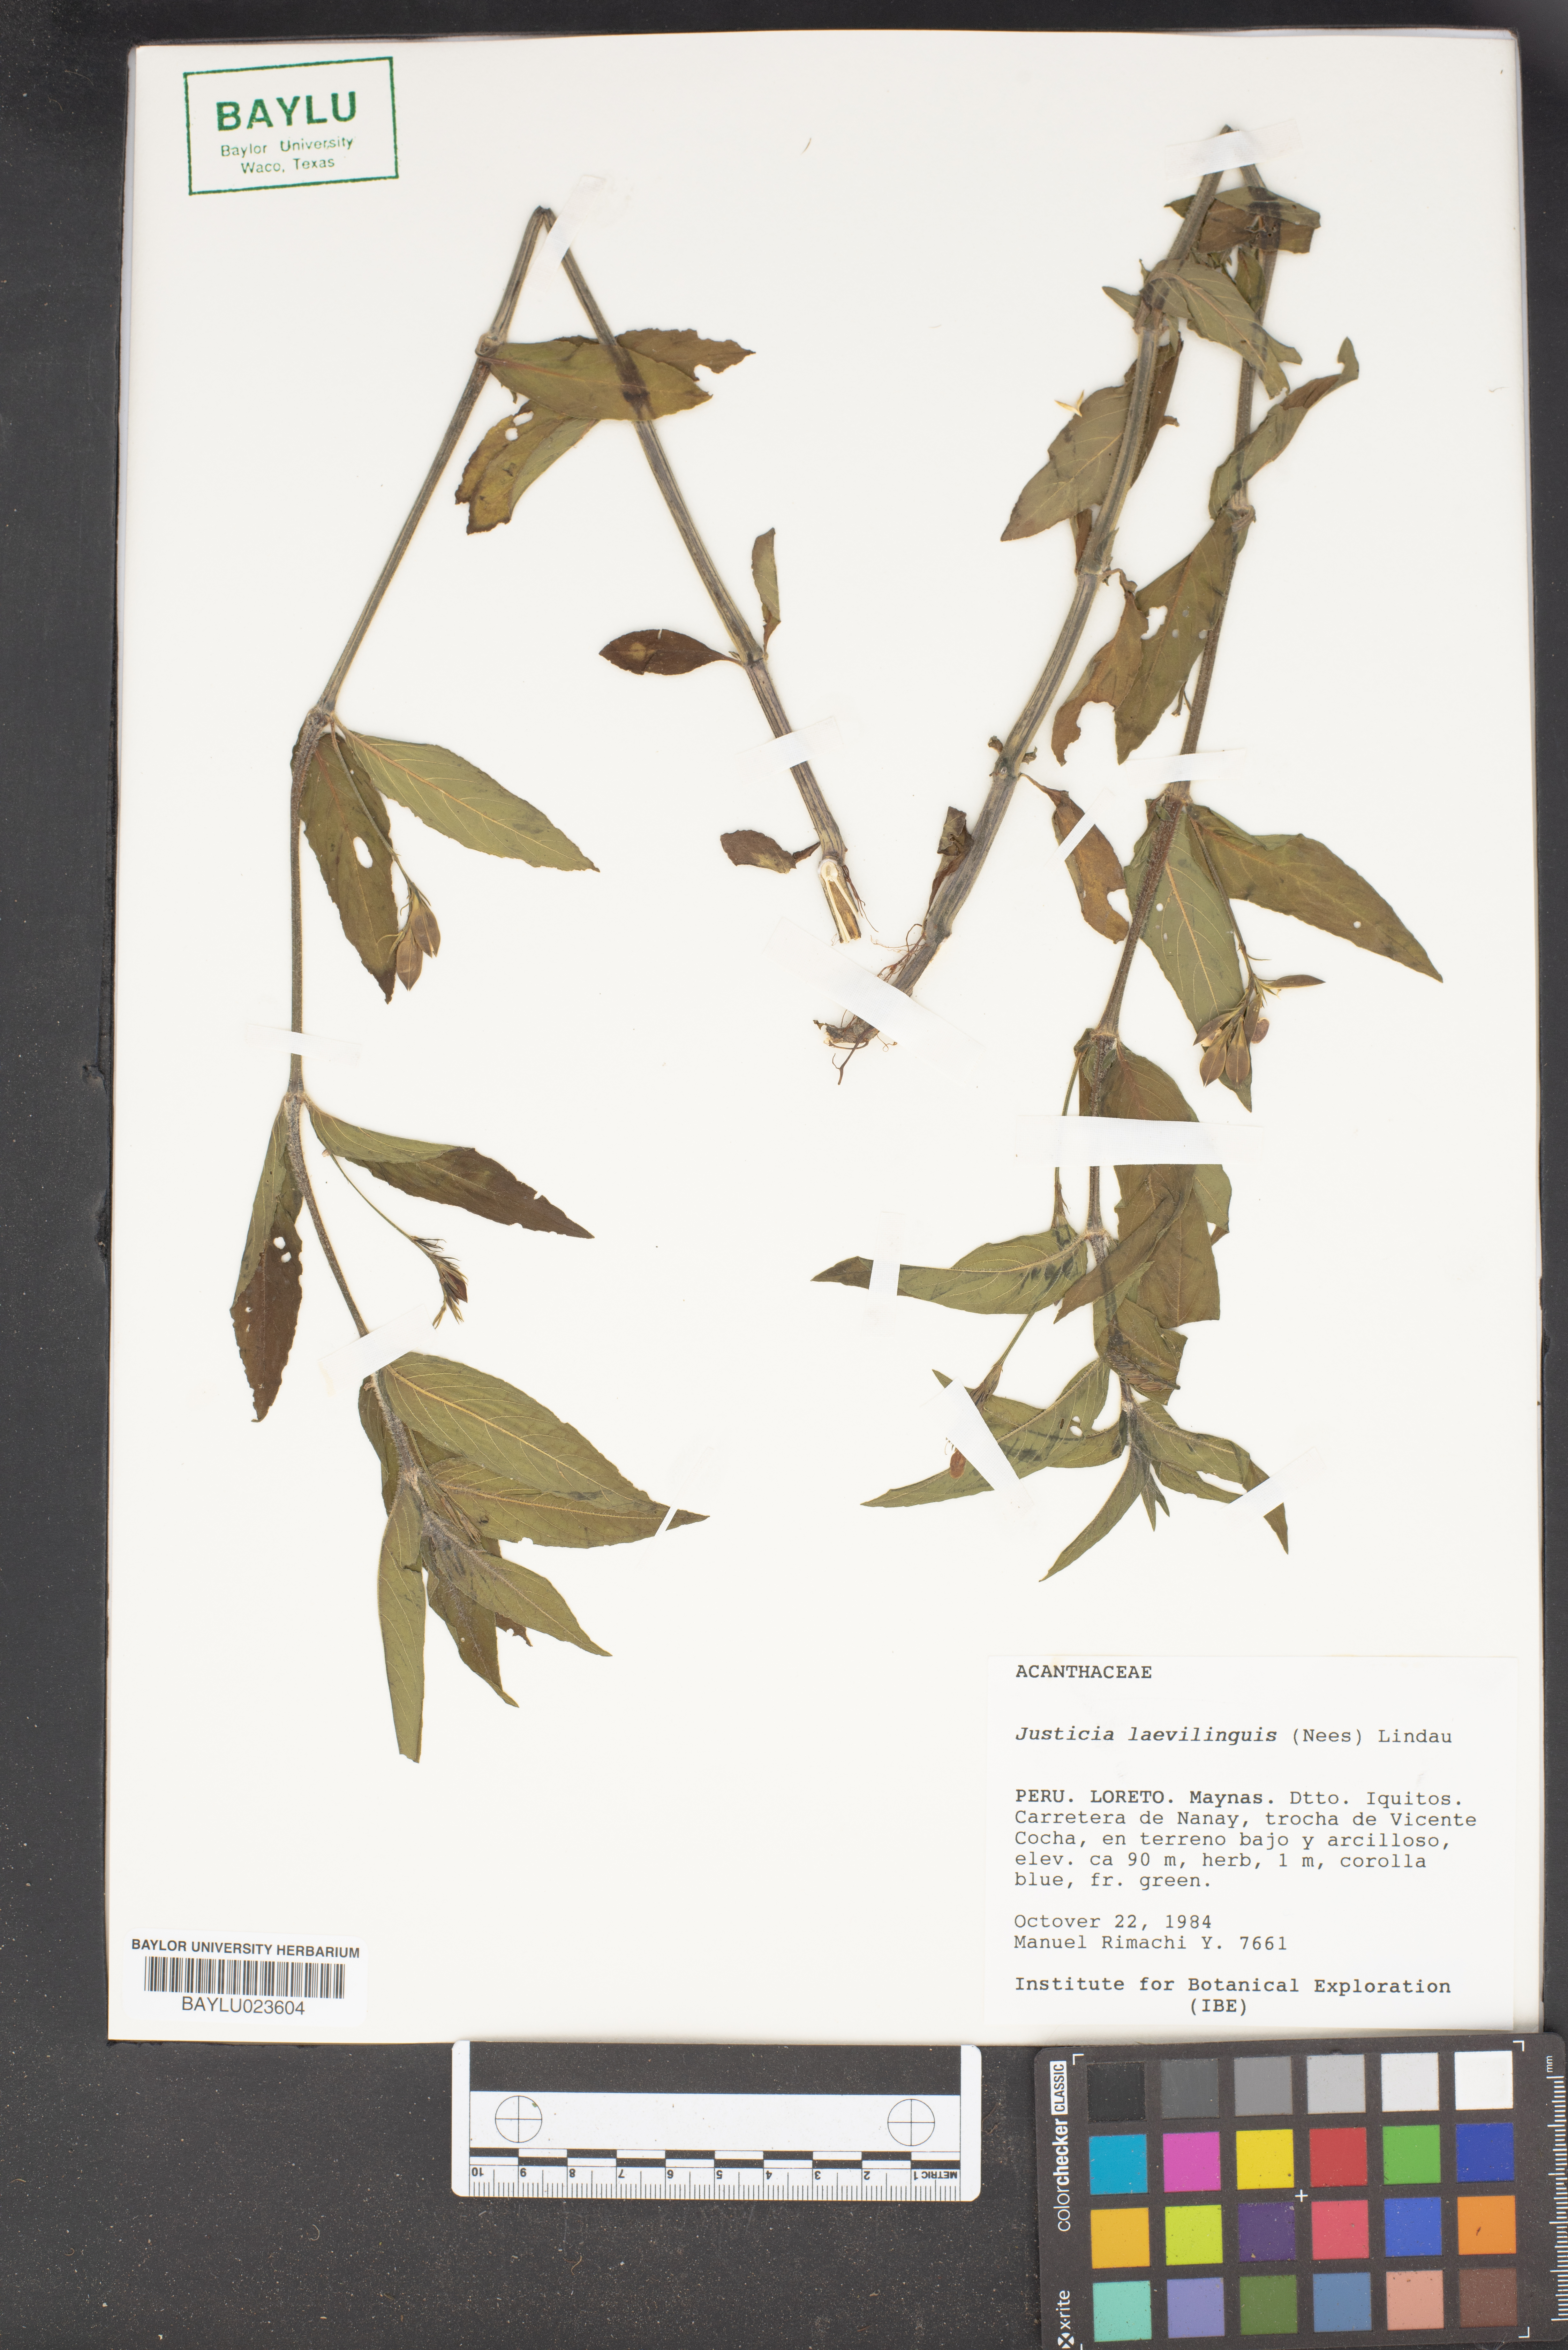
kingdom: Plantae
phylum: Tracheophyta
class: Magnoliopsida
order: Lamiales
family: Acanthaceae
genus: Dianthera
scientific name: Dianthera laevilinguis
